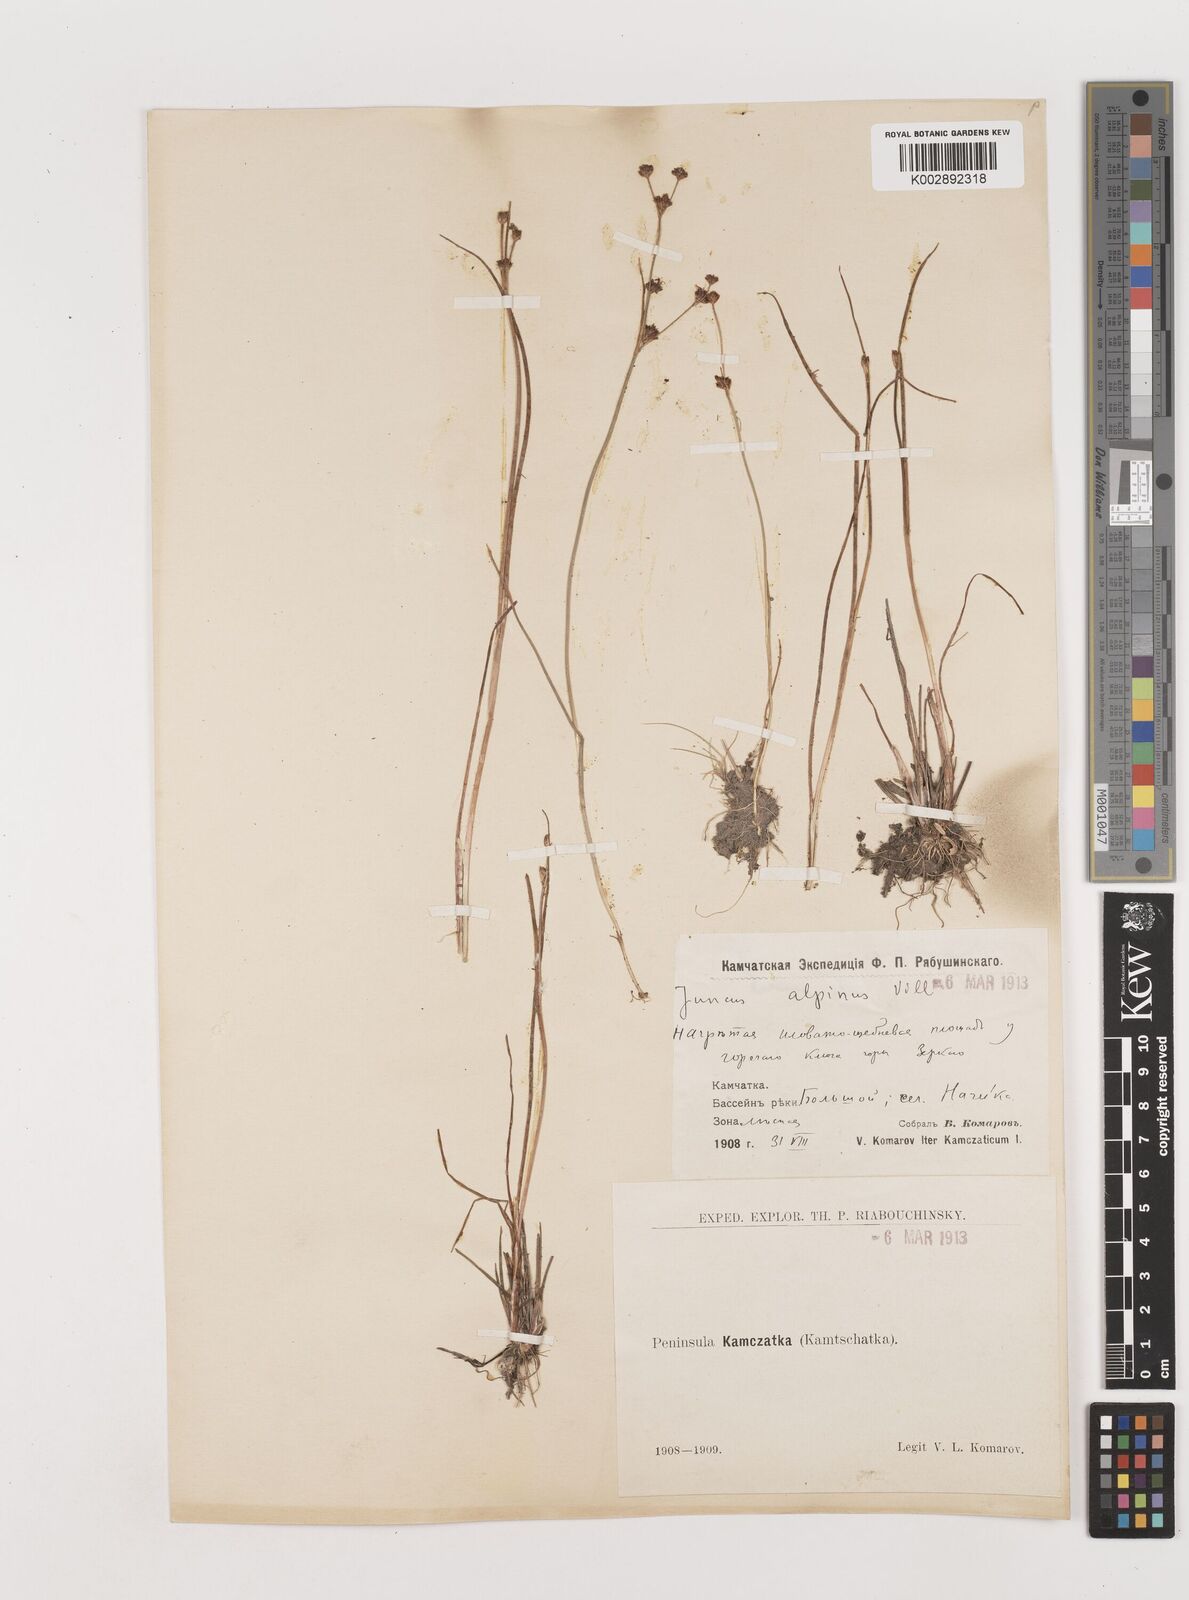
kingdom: Plantae
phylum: Tracheophyta
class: Liliopsida
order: Poales
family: Juncaceae
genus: Juncus
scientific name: Juncus alpinoarticulatus
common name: Alpine rush
